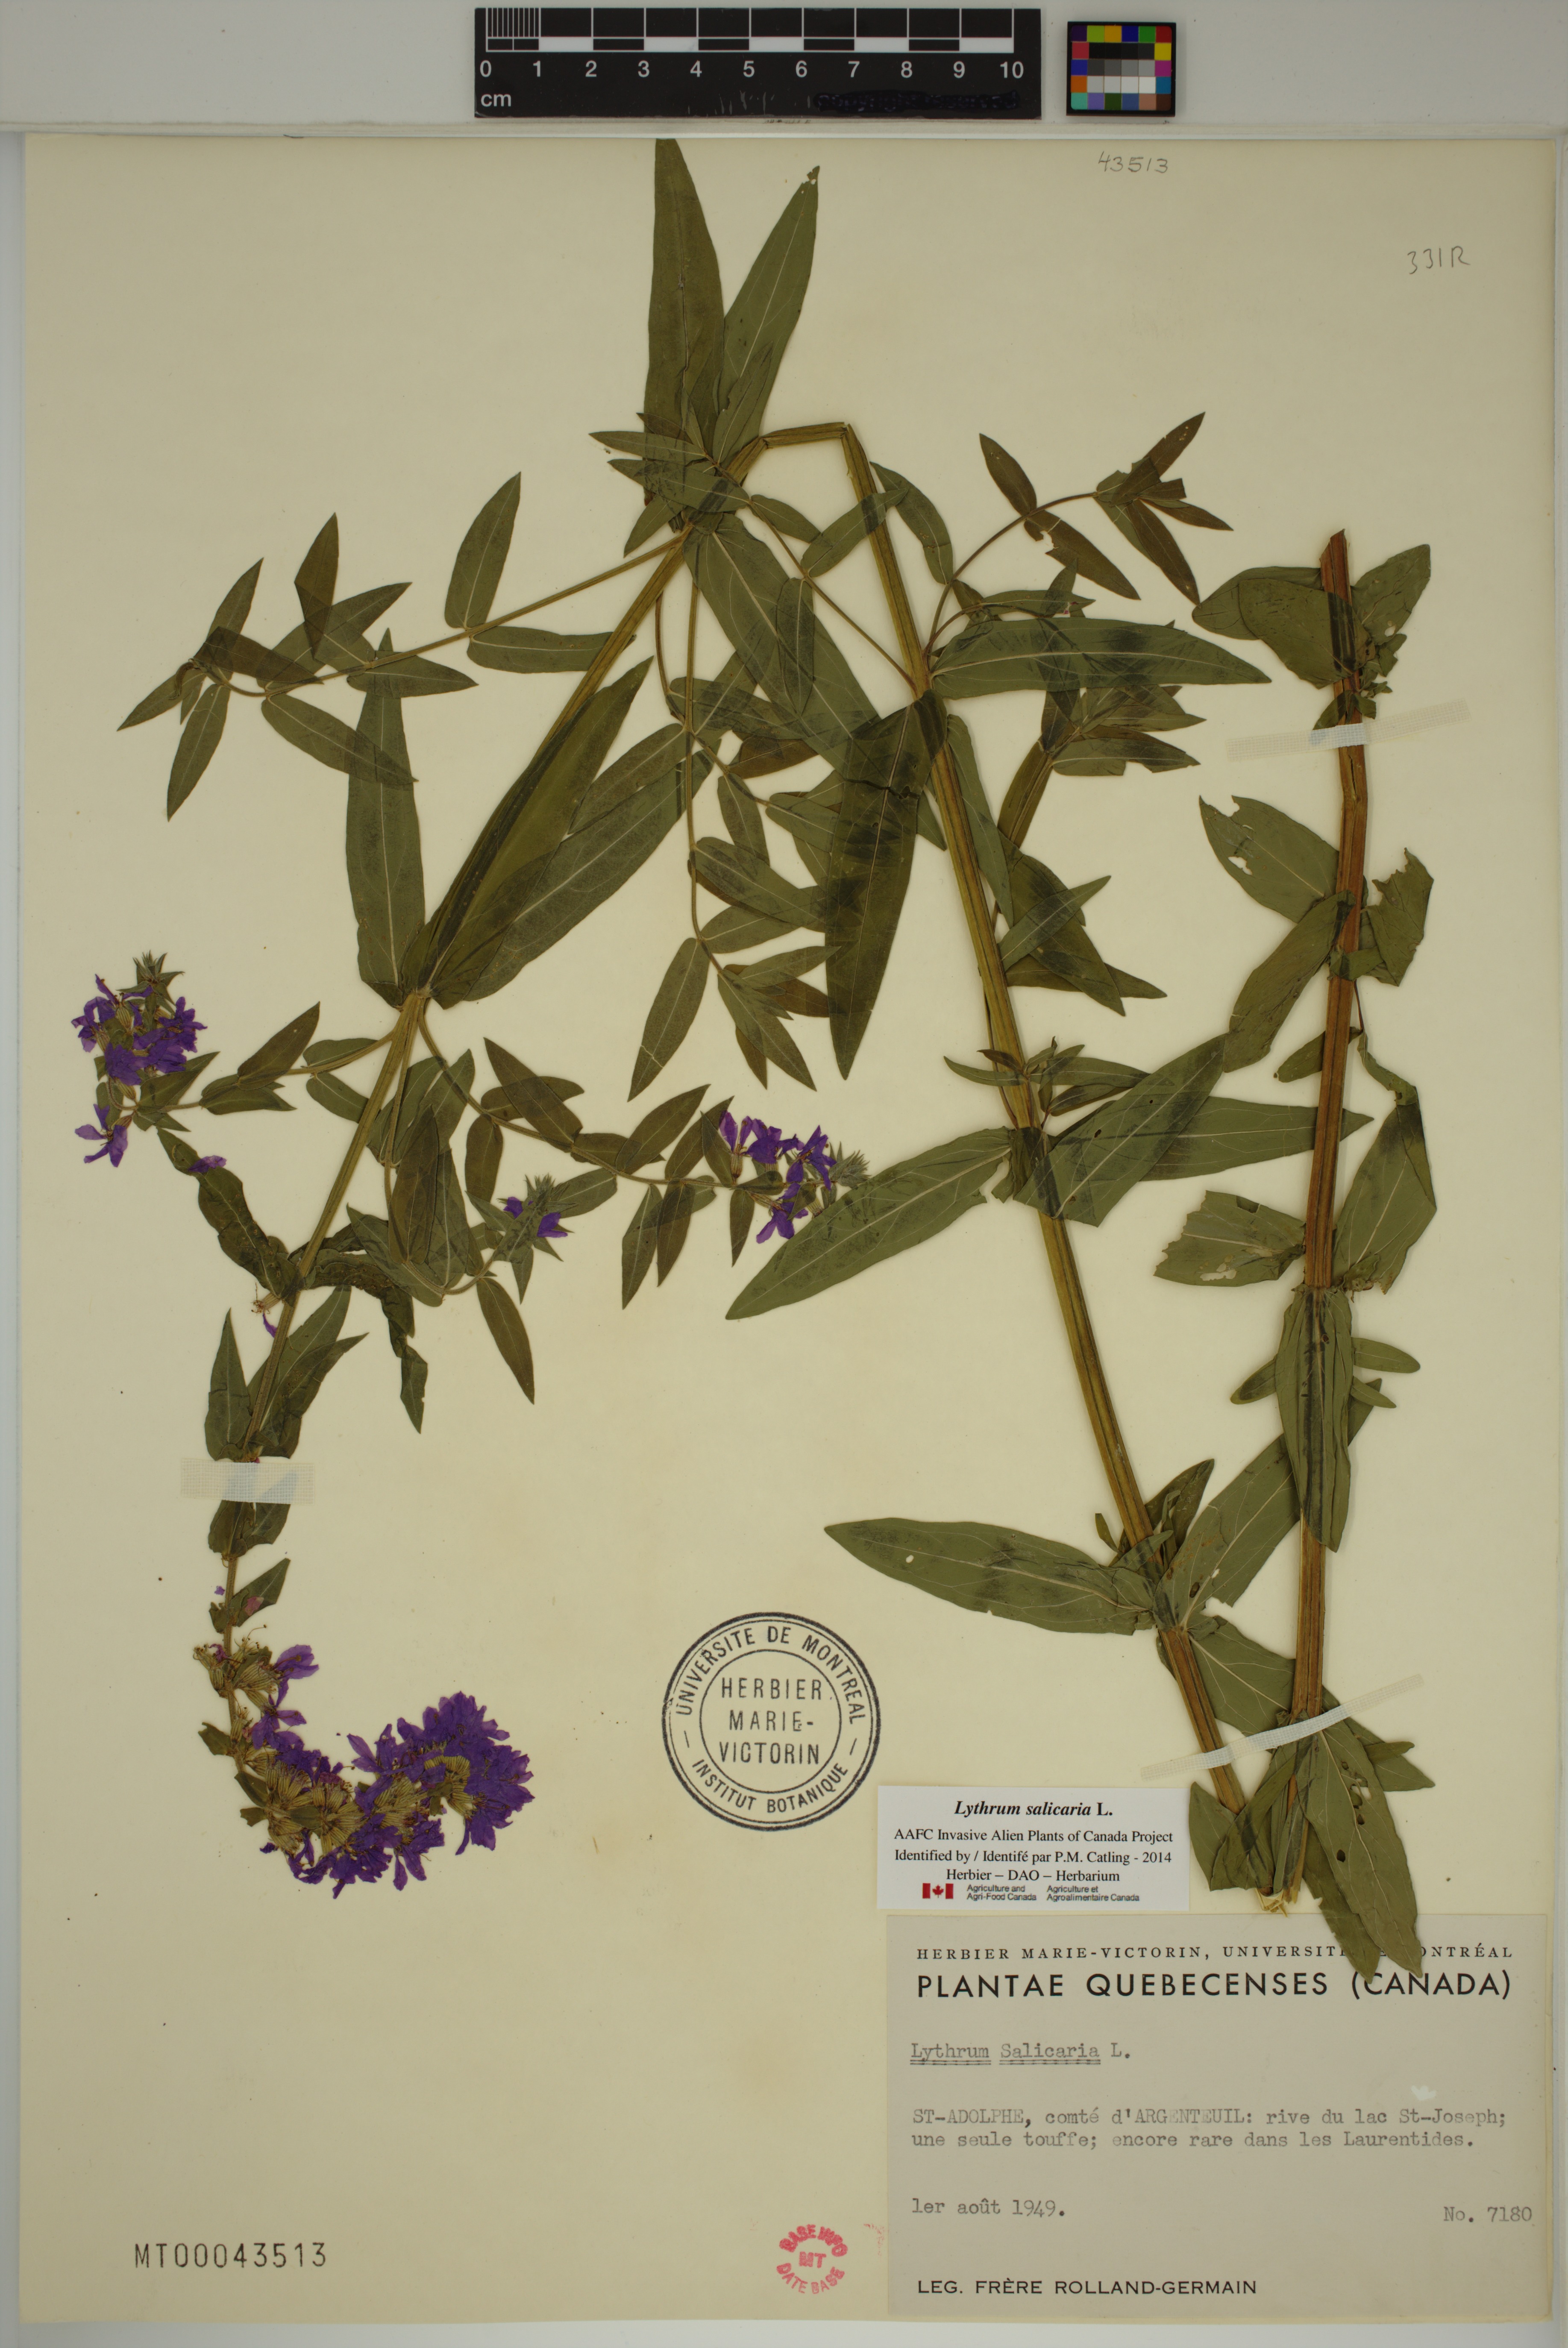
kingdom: Plantae
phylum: Tracheophyta
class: Magnoliopsida
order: Myrtales
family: Lythraceae
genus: Lythrum
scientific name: Lythrum salicaria
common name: Purple loosestrife
